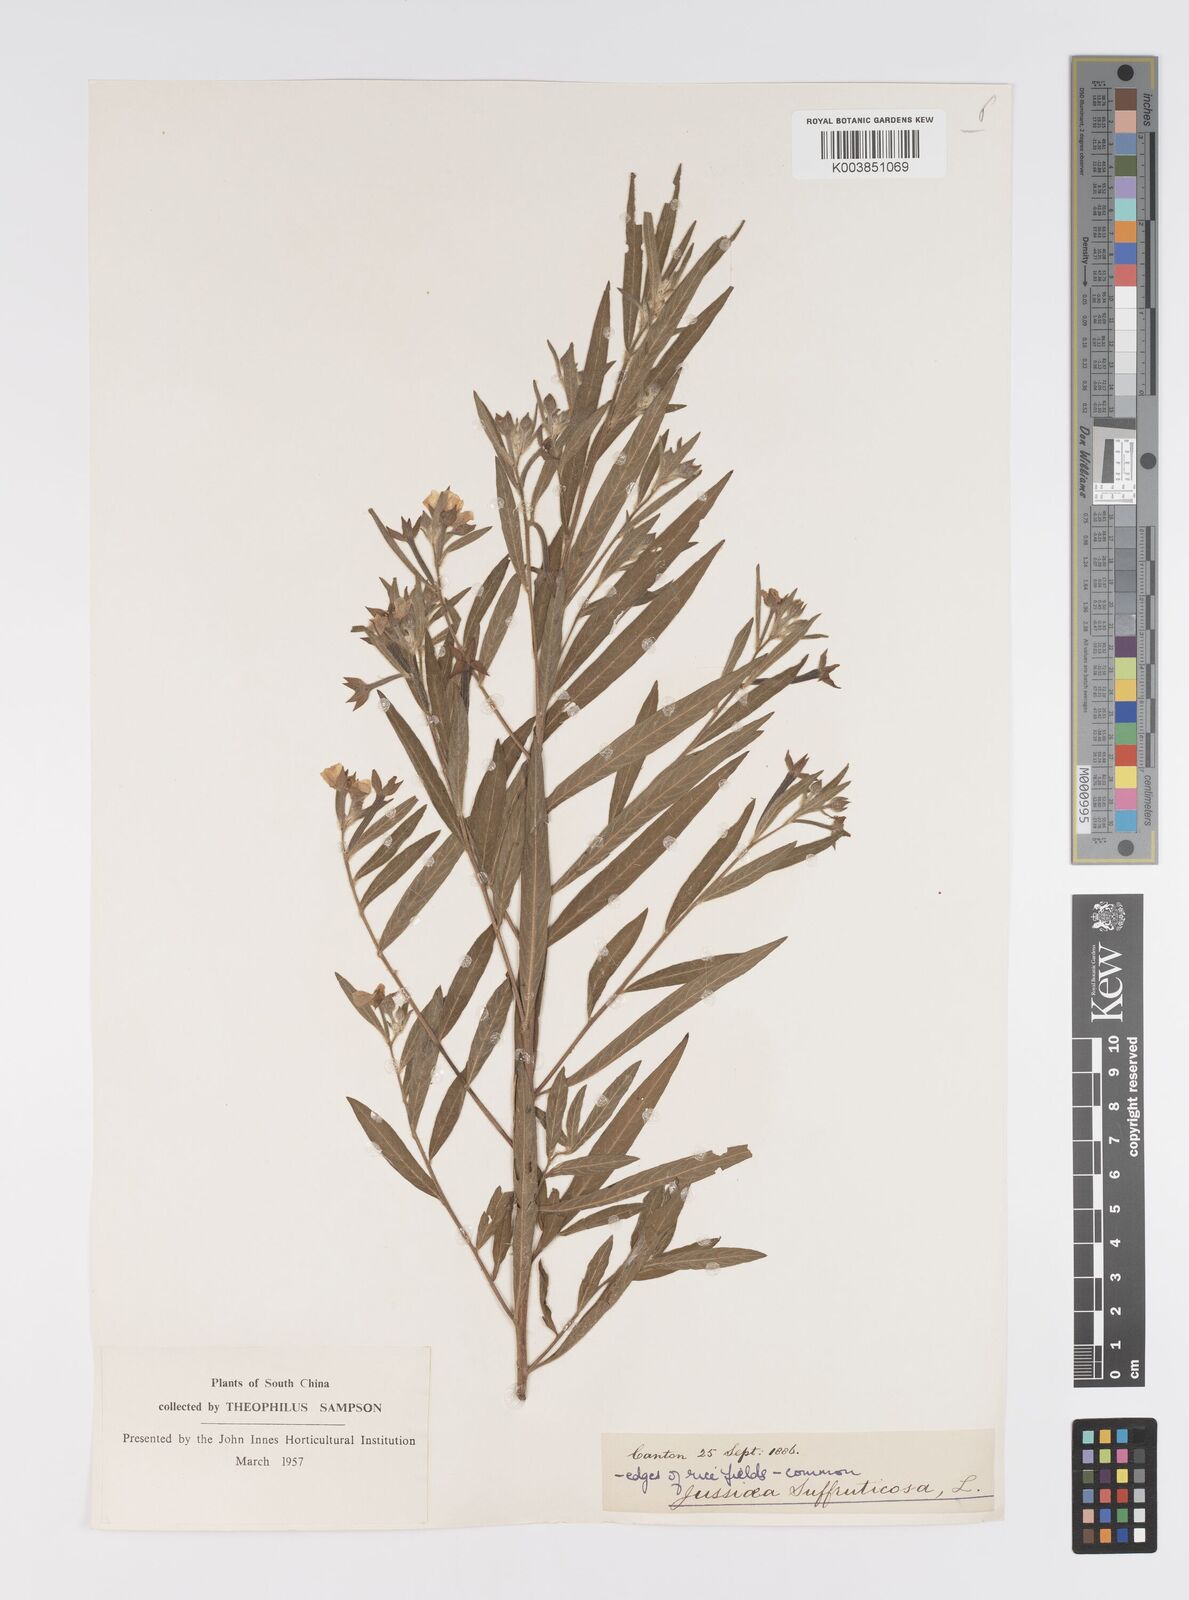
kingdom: Plantae
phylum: Tracheophyta
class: Magnoliopsida
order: Myrtales
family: Onagraceae
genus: Ludwigia
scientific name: Ludwigia octovalvis
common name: Water-primrose
